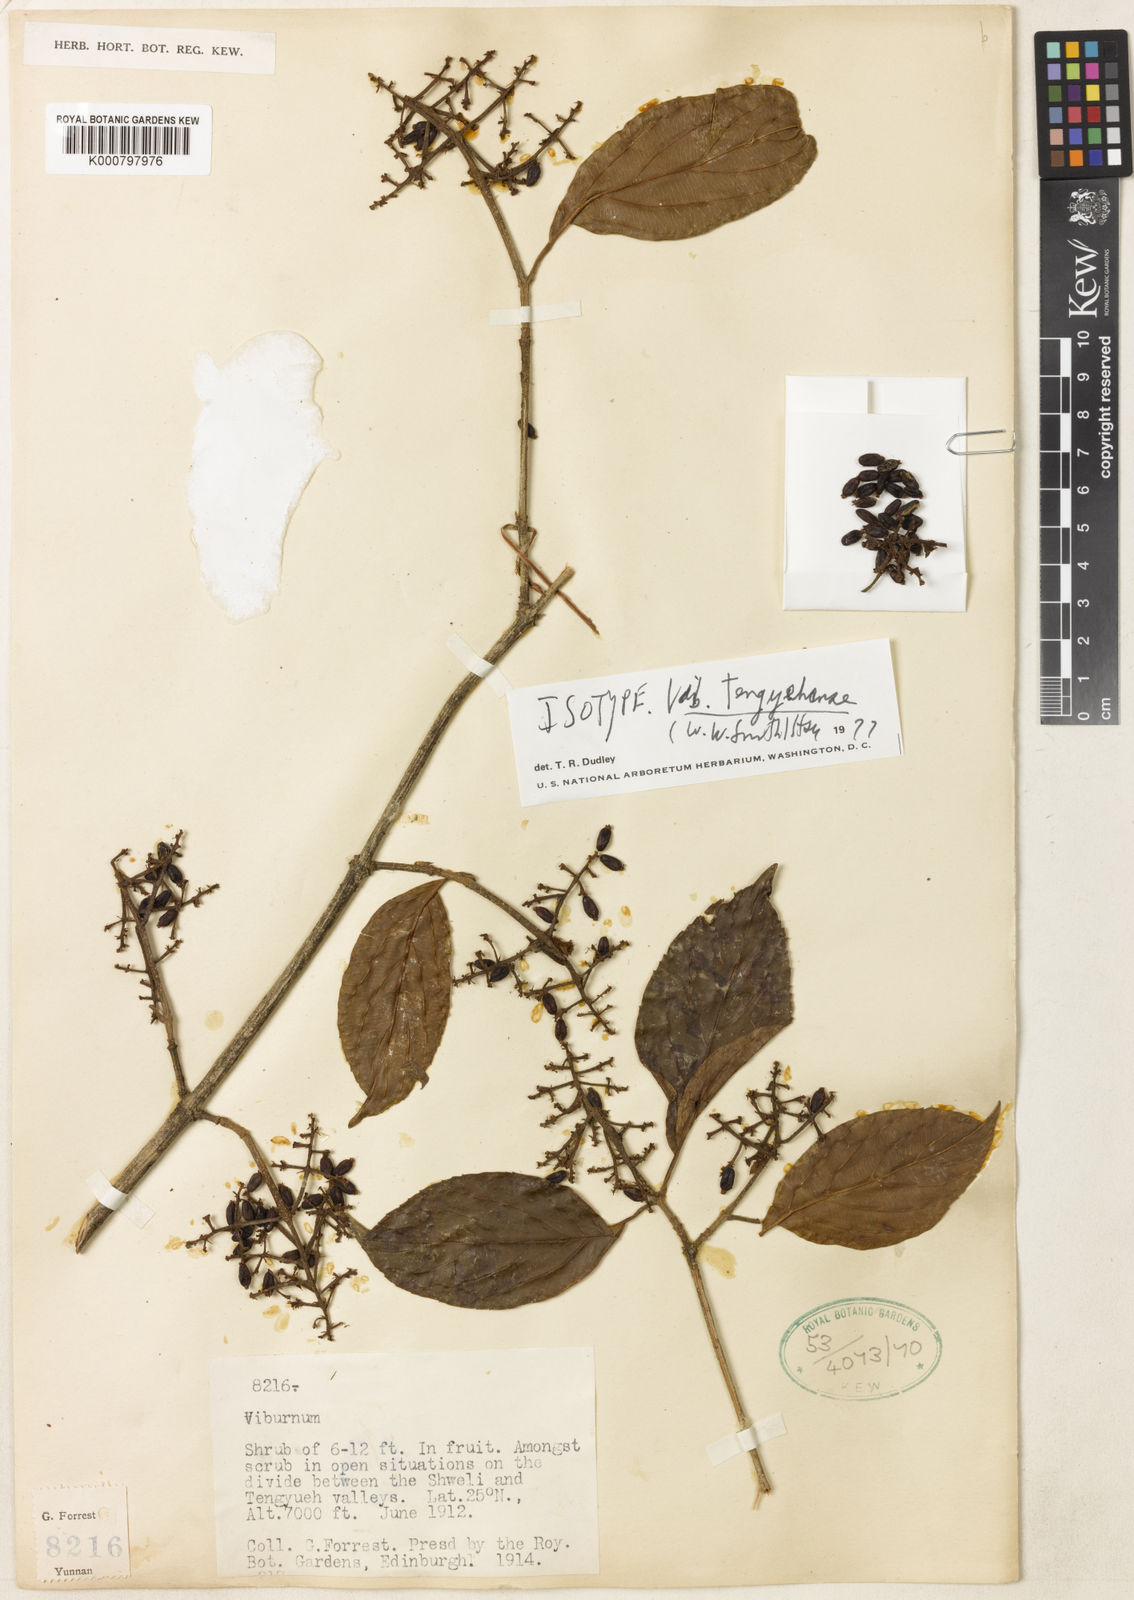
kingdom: Plantae
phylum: Tracheophyta
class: Magnoliopsida
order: Dipsacales
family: Viburnaceae
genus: Viburnum
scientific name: Viburnum tengyuehense
